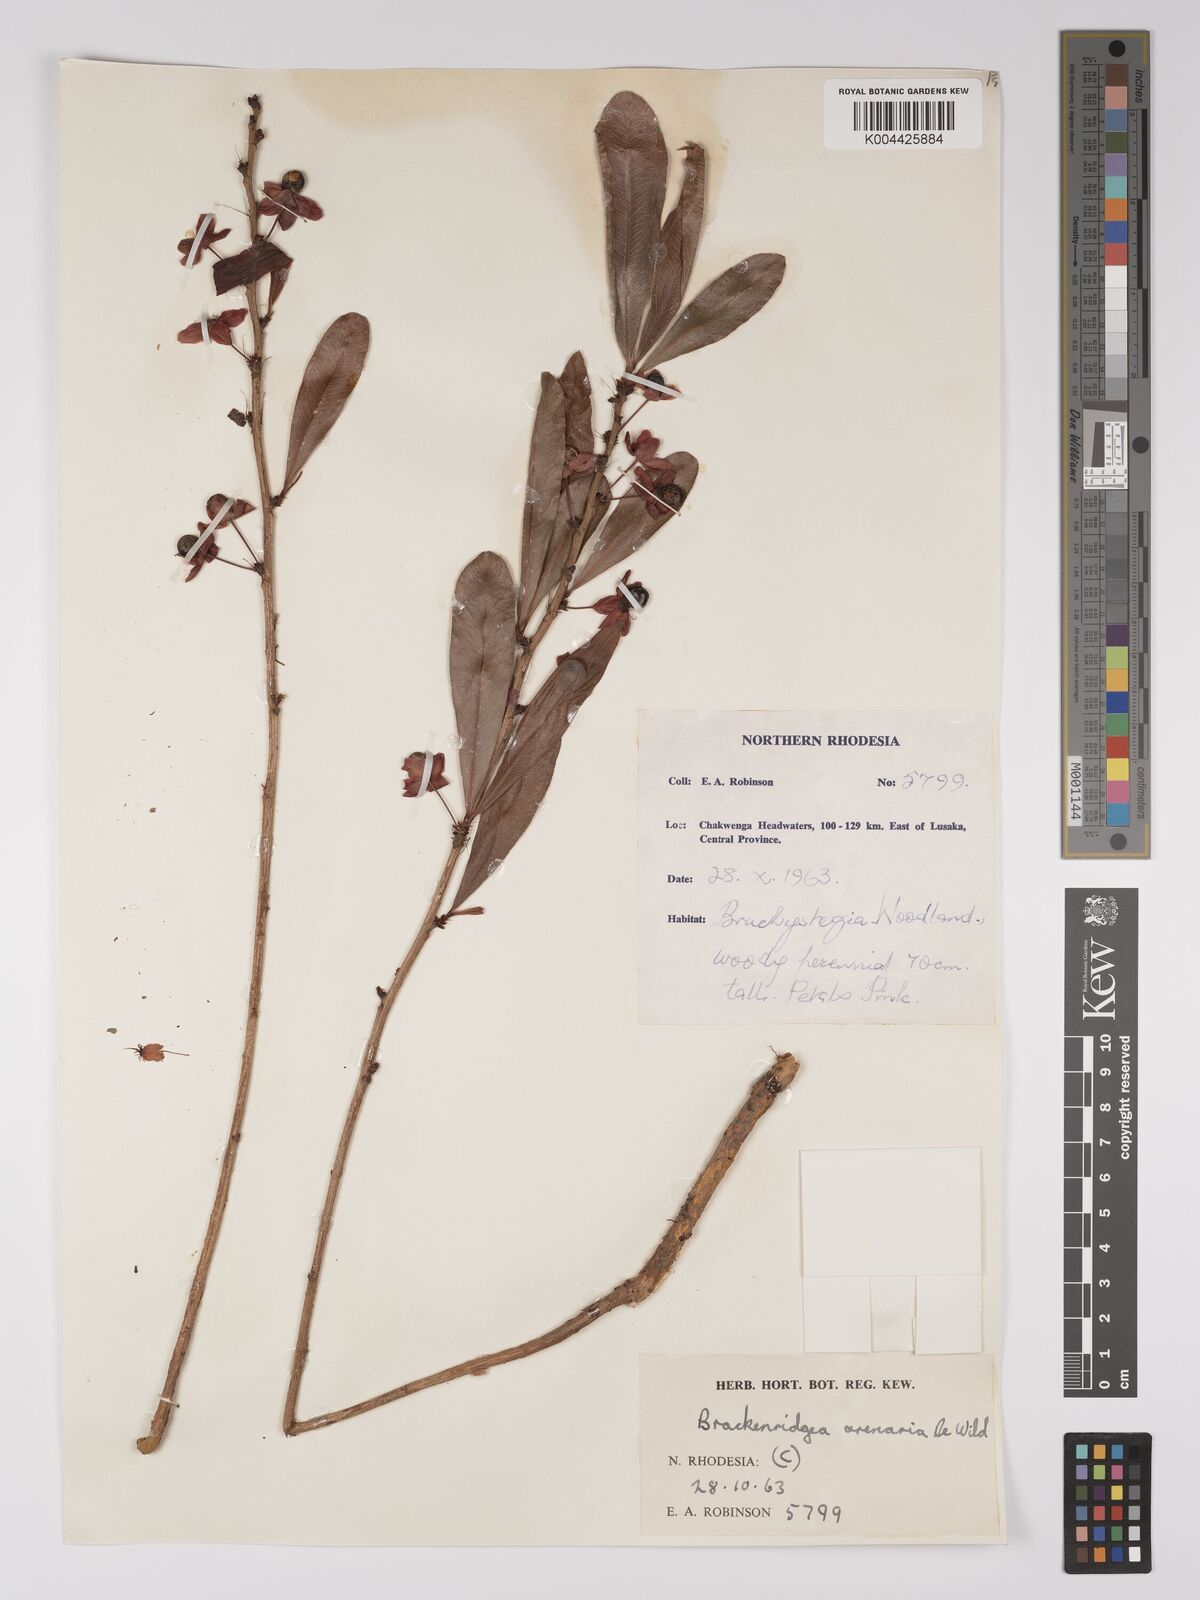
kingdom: Plantae
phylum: Tracheophyta
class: Magnoliopsida
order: Malpighiales
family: Ochnaceae
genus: Ochna
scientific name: Ochna arenaria
